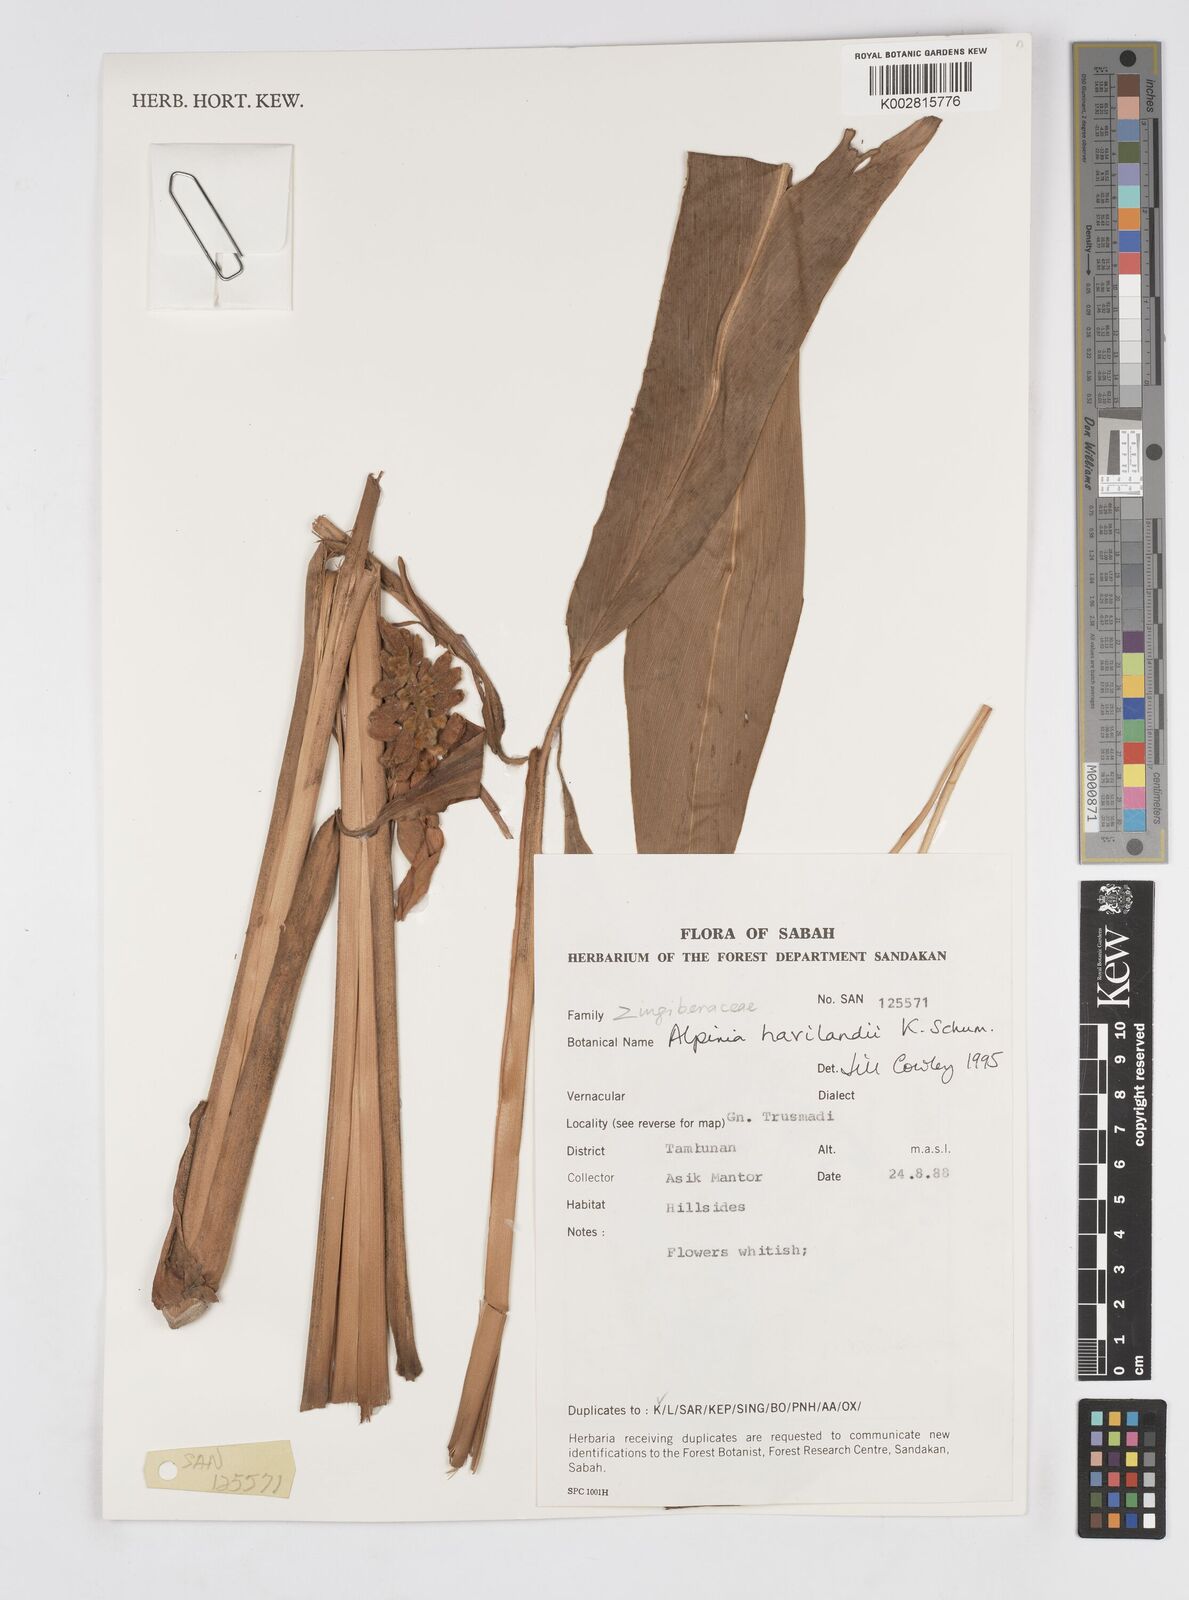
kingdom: Plantae
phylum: Tracheophyta
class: Liliopsida
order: Zingiberales
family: Zingiberaceae
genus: Alpinia
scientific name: Alpinia havilandii
